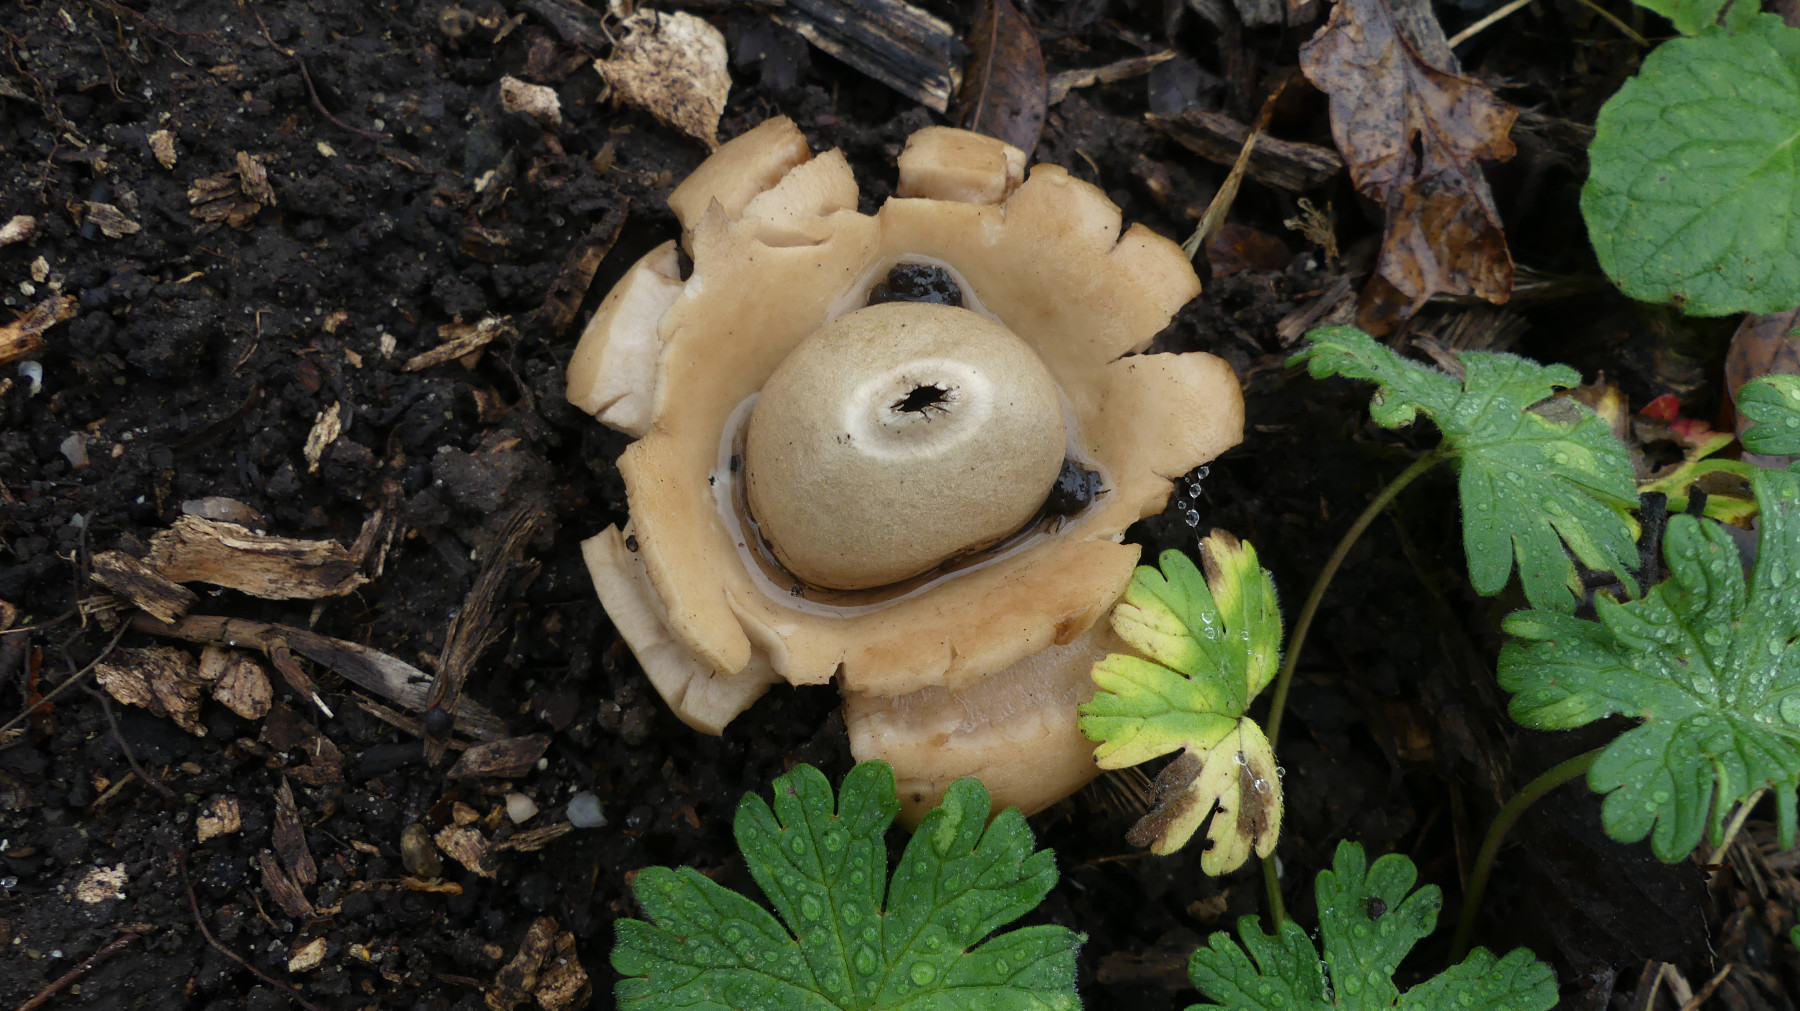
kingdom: Fungi
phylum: Basidiomycota
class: Agaricomycetes
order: Geastrales
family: Geastraceae
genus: Geastrum
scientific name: Geastrum michelianum
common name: kødet stjernebold
